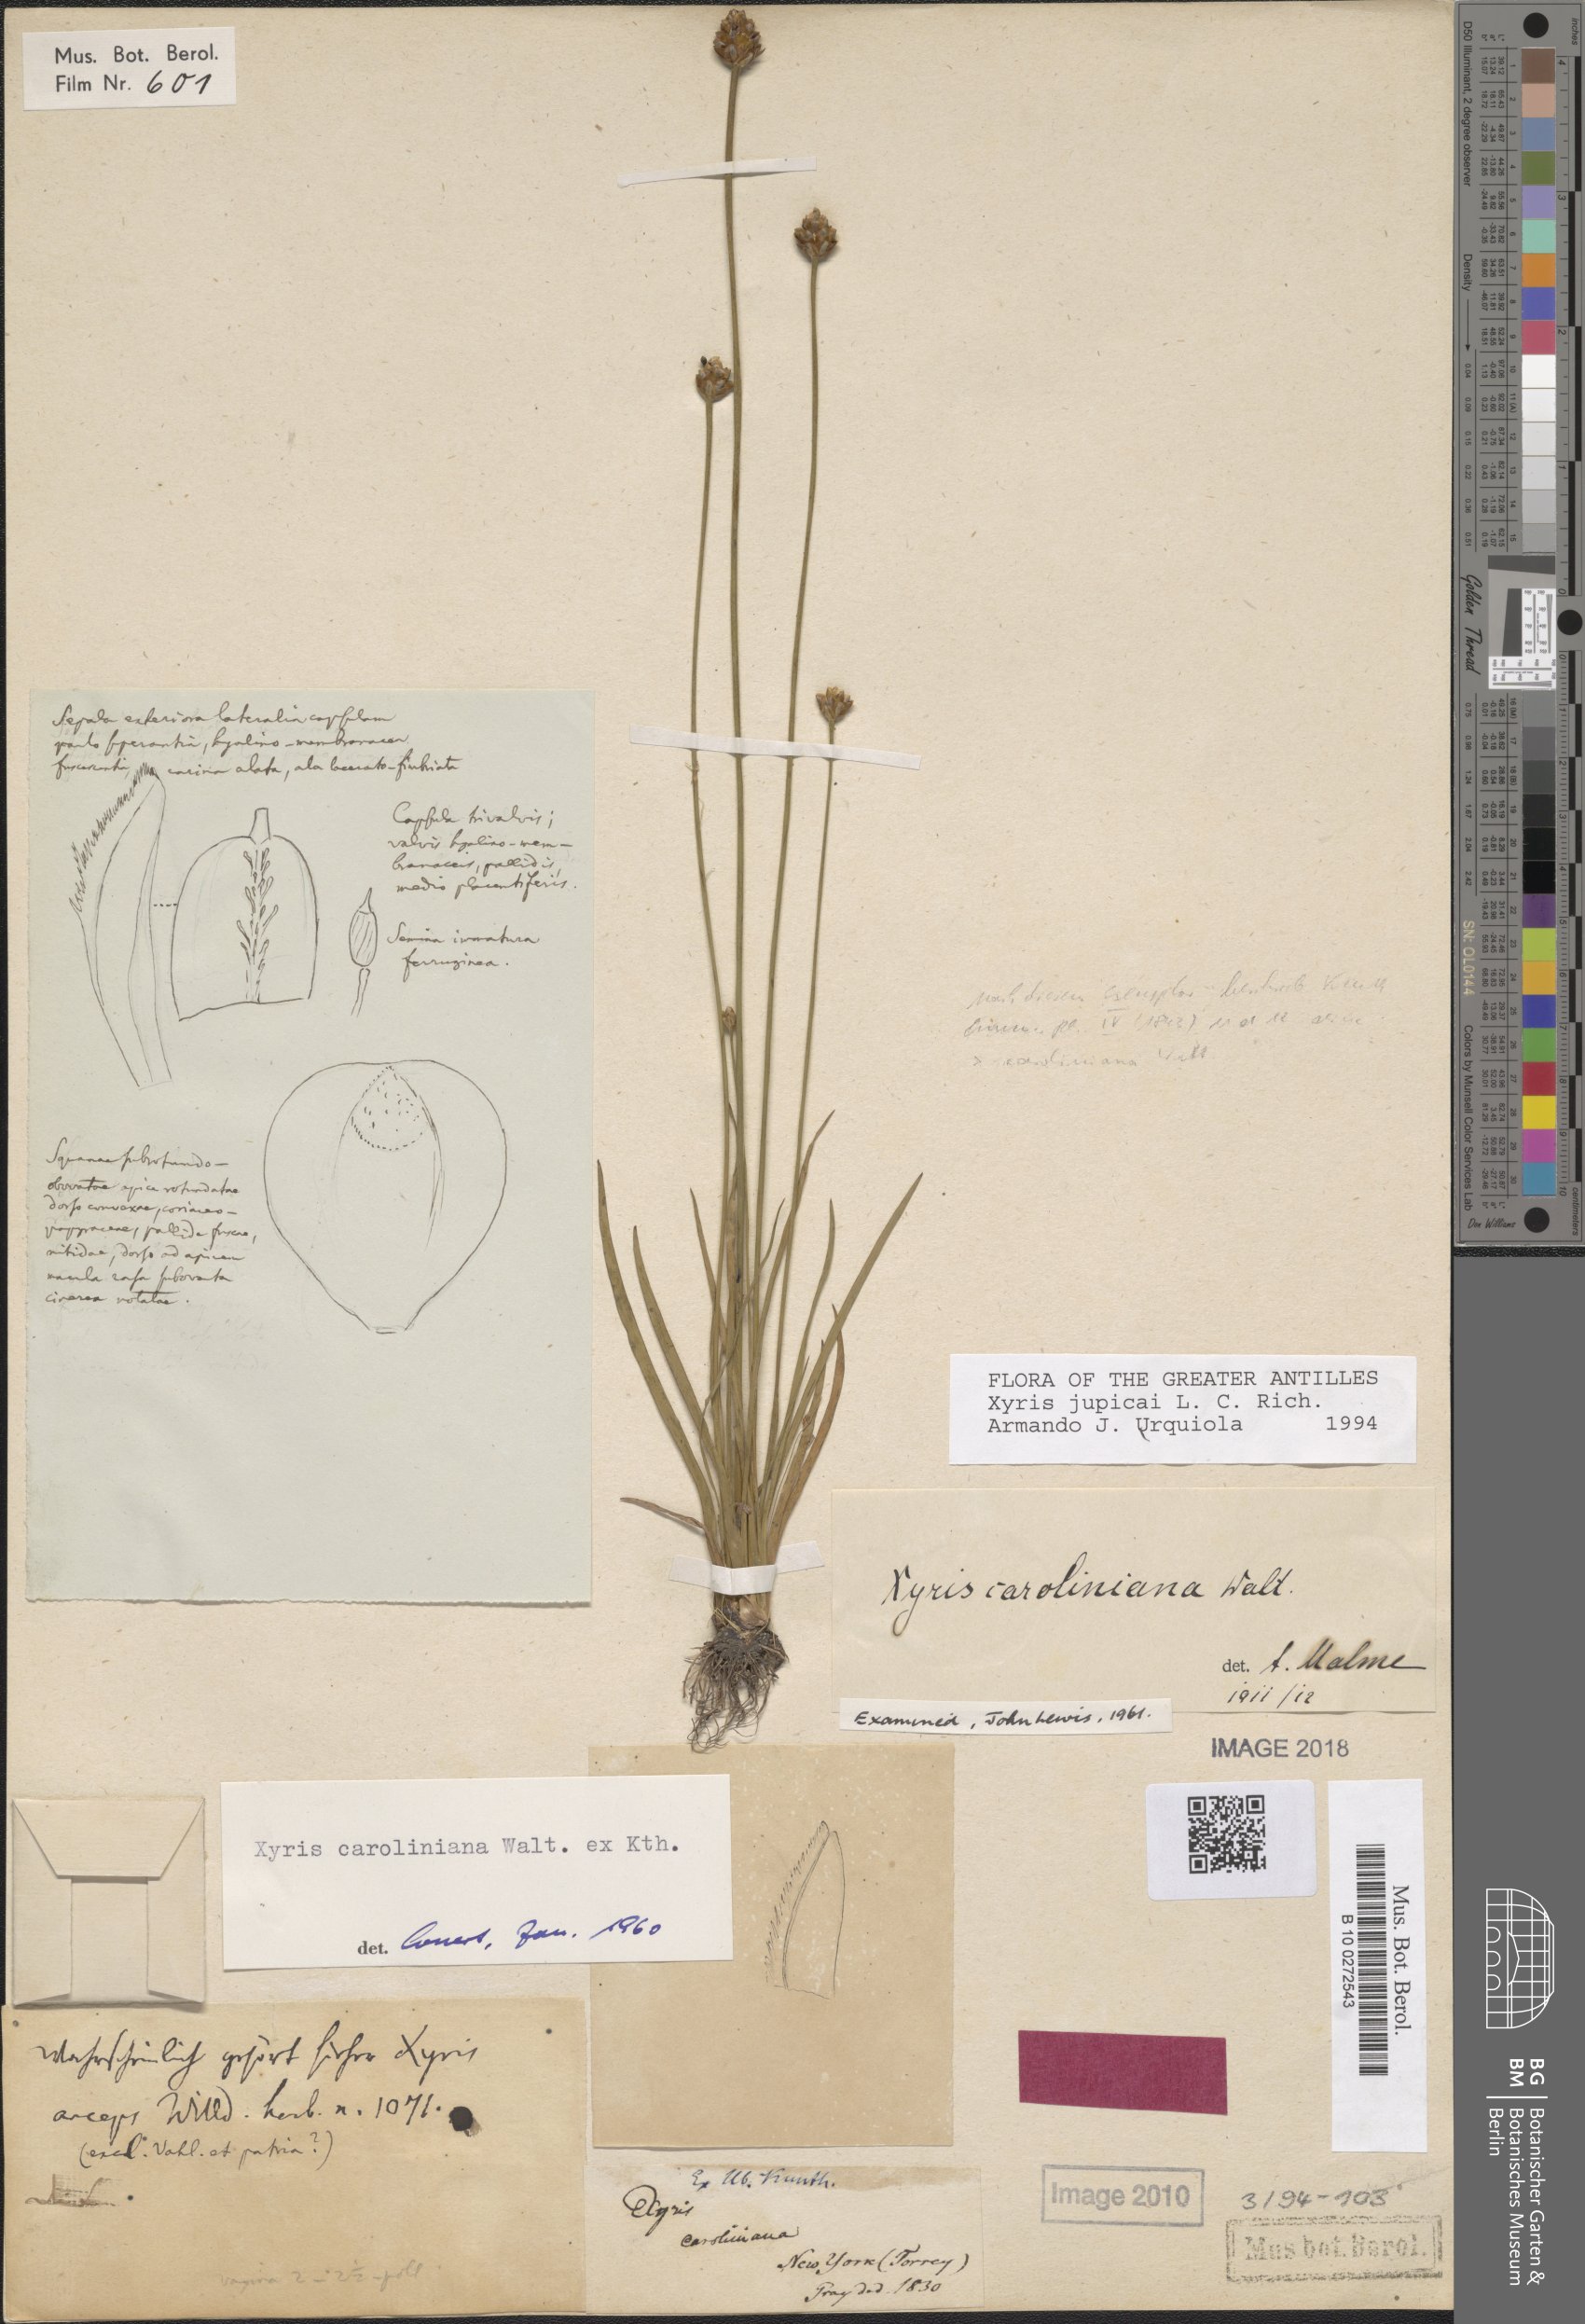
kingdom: Plantae
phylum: Tracheophyta
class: Liliopsida
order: Poales
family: Xyridaceae
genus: Xyris
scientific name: Xyris jupicai
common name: Richard's yelloweyed grass
